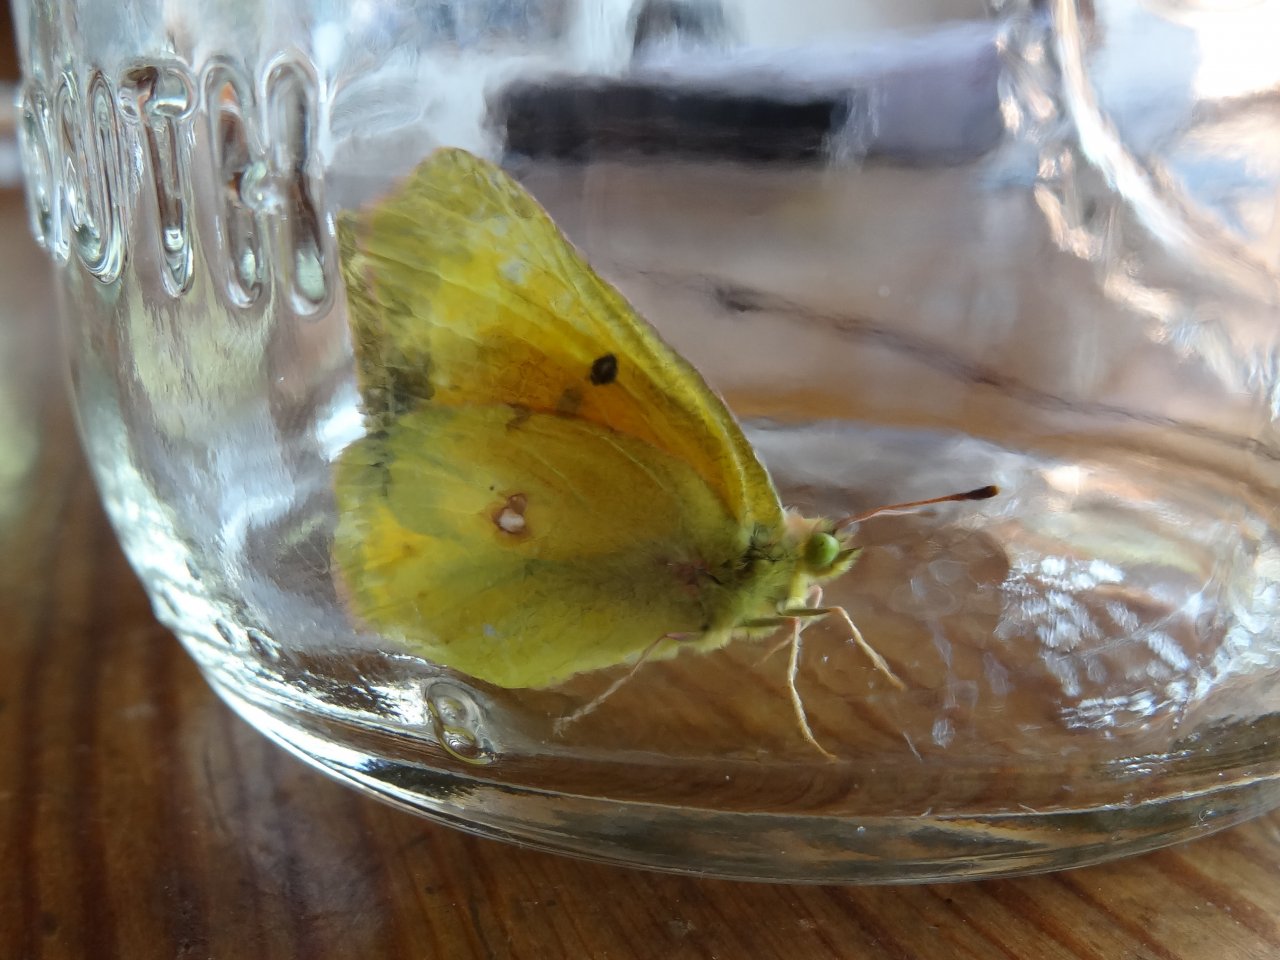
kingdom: Animalia
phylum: Arthropoda
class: Insecta
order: Lepidoptera
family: Pieridae
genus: Colias
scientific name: Colias eurytheme
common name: Orange Sulphur
